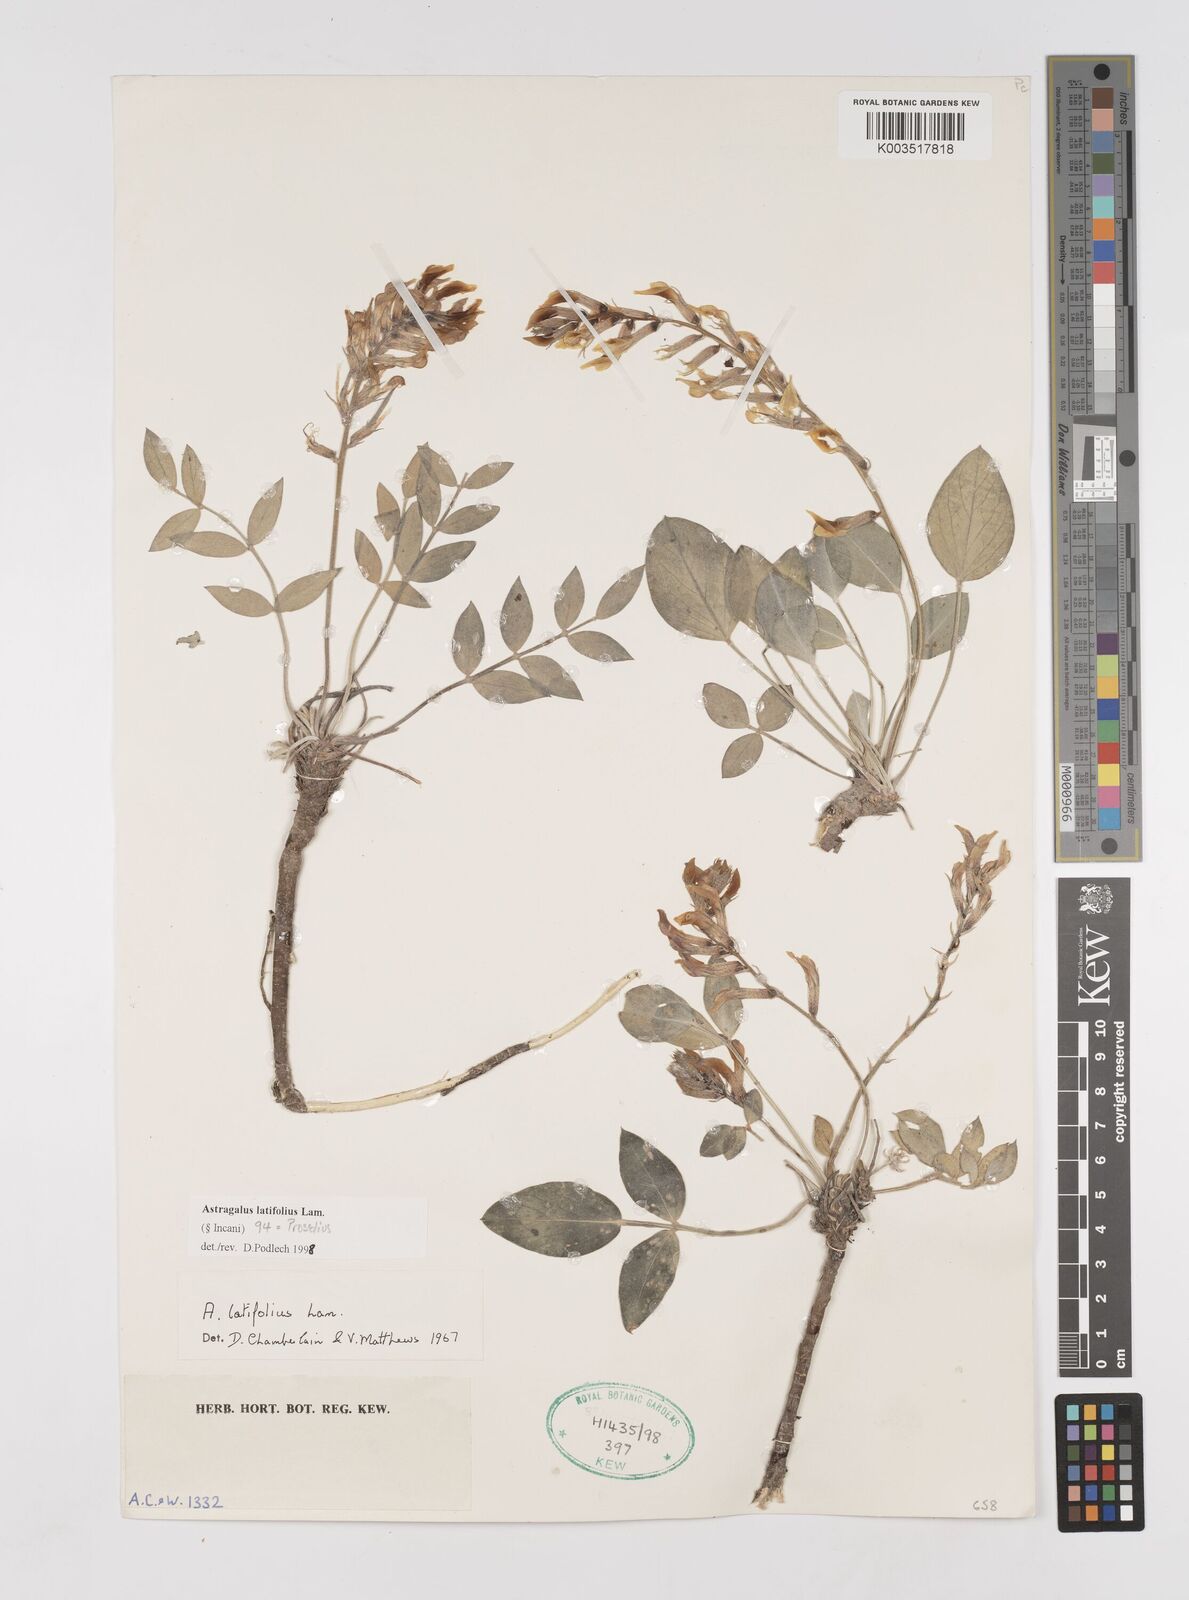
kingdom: Plantae
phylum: Tracheophyta
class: Magnoliopsida
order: Fabales
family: Fabaceae
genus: Astragalus
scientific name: Astragalus latifolius
